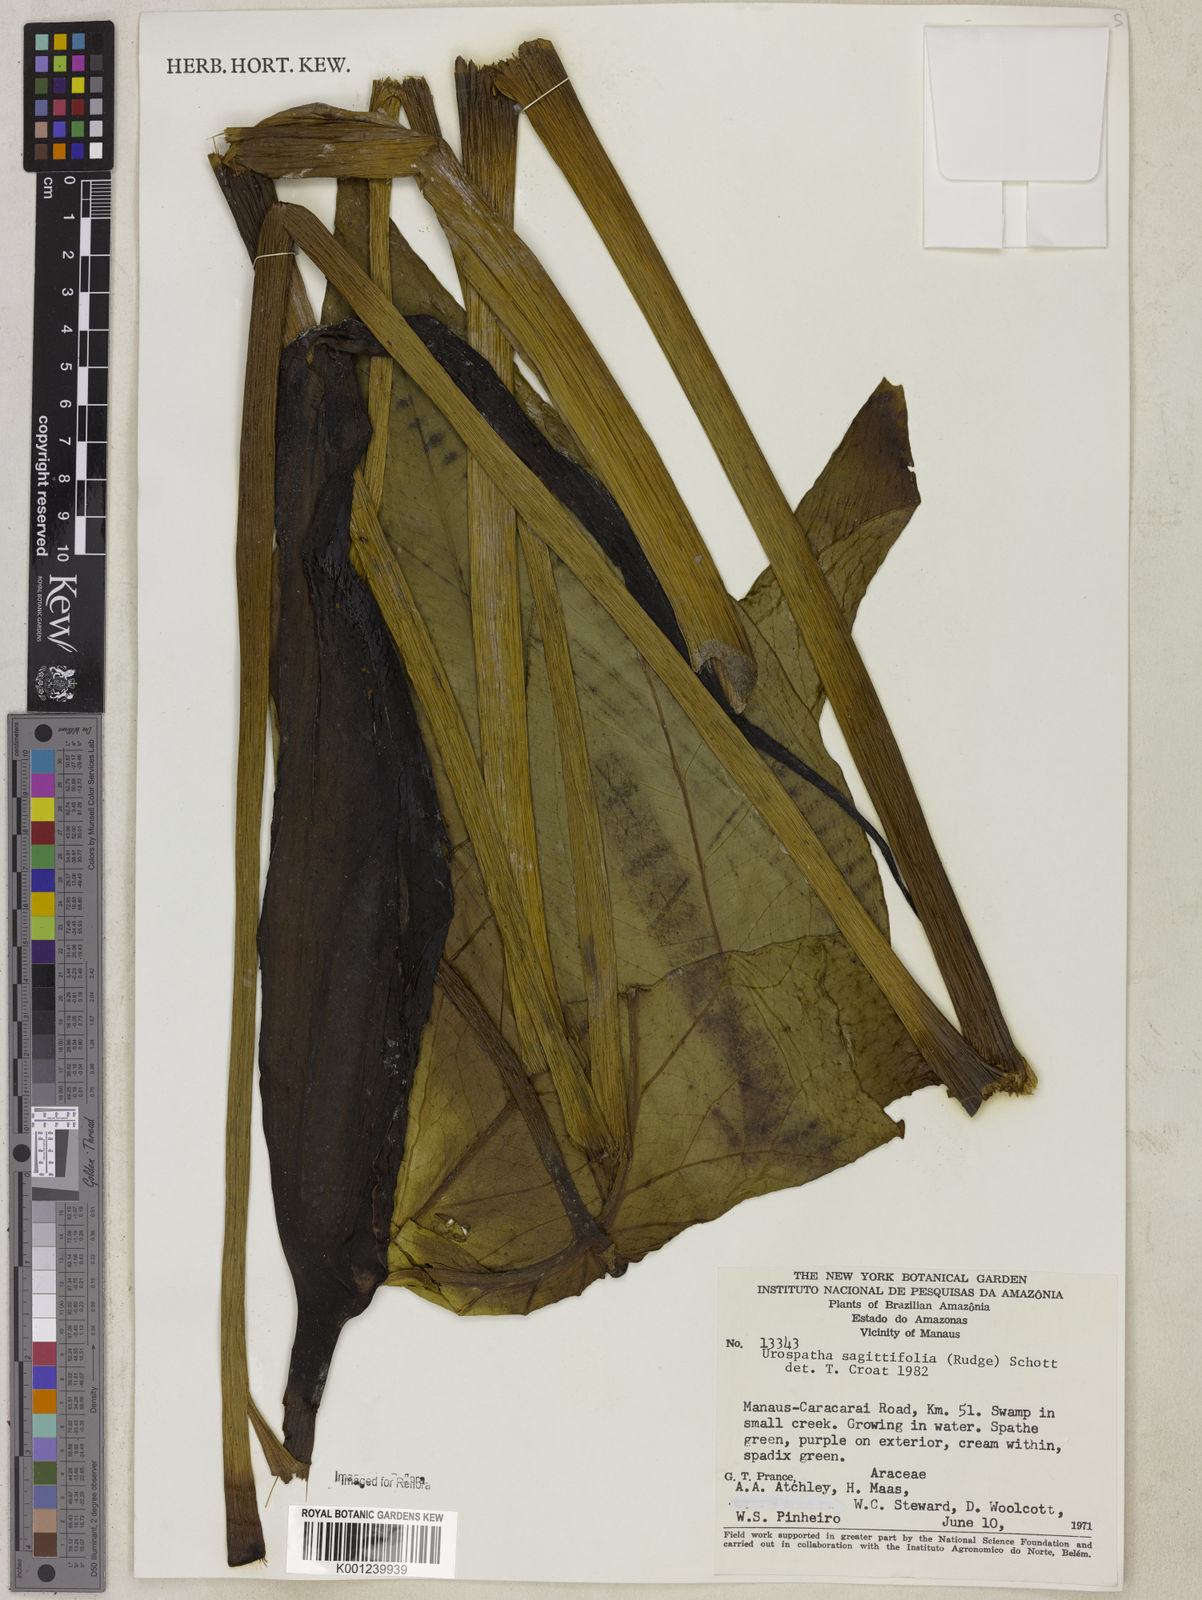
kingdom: Plantae
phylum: Tracheophyta
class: Liliopsida
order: Alismatales
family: Araceae
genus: Urospatha
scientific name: Urospatha sagittifolia
